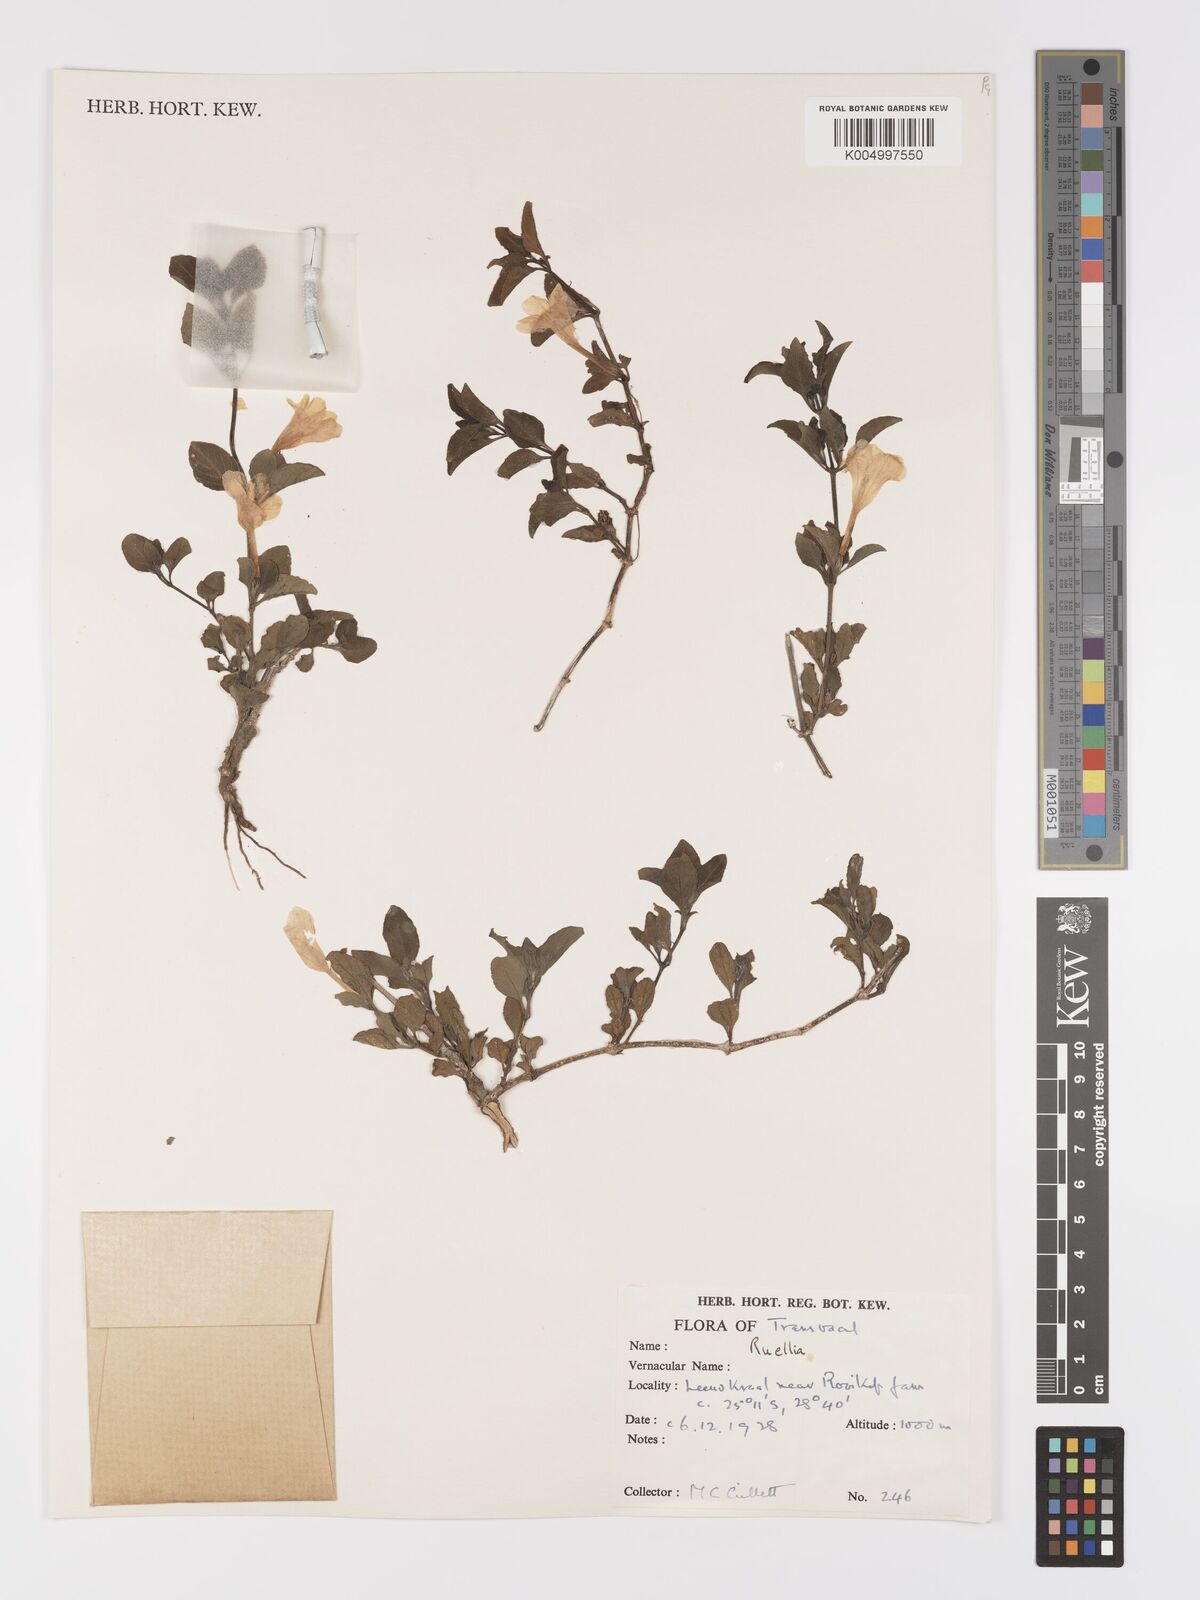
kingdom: Plantae
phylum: Tracheophyta
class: Magnoliopsida
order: Lamiales
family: Acanthaceae
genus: Ruellia
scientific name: Ruellia patula
